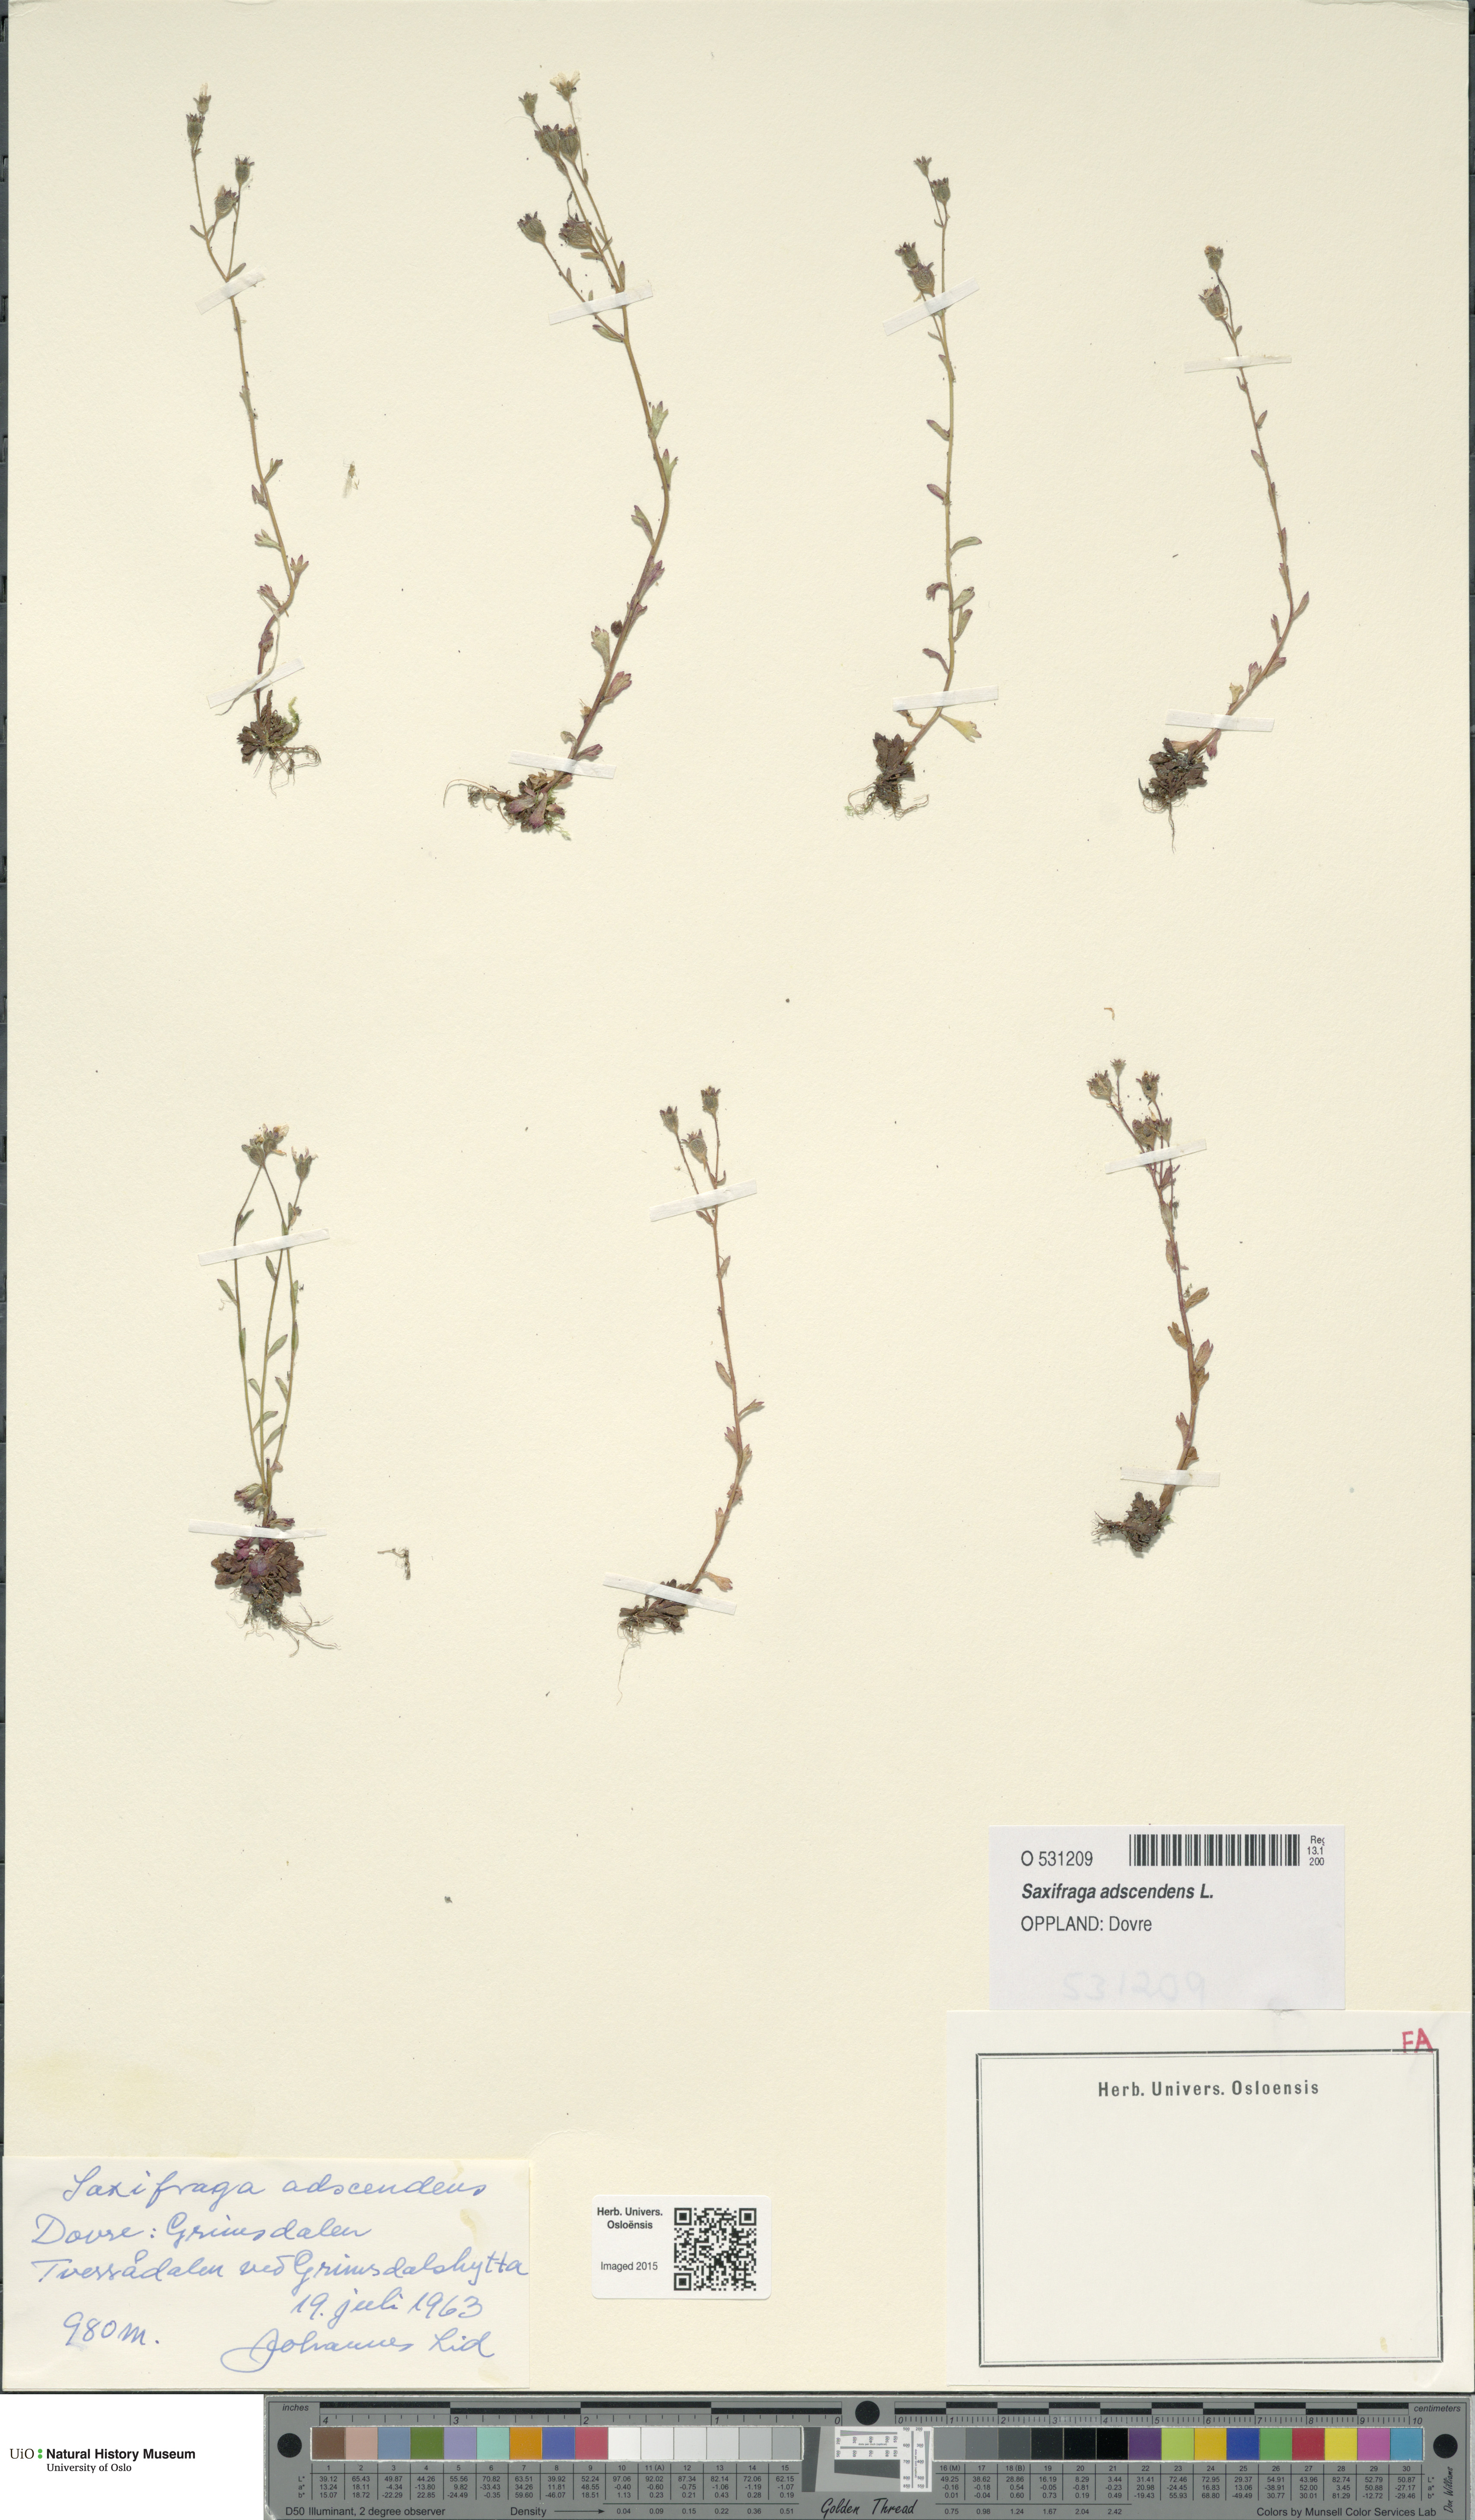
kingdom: Plantae
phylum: Tracheophyta
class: Magnoliopsida
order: Saxifragales
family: Saxifragaceae
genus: Saxifraga
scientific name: Saxifraga adscendens
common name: Ascending saxifrage
